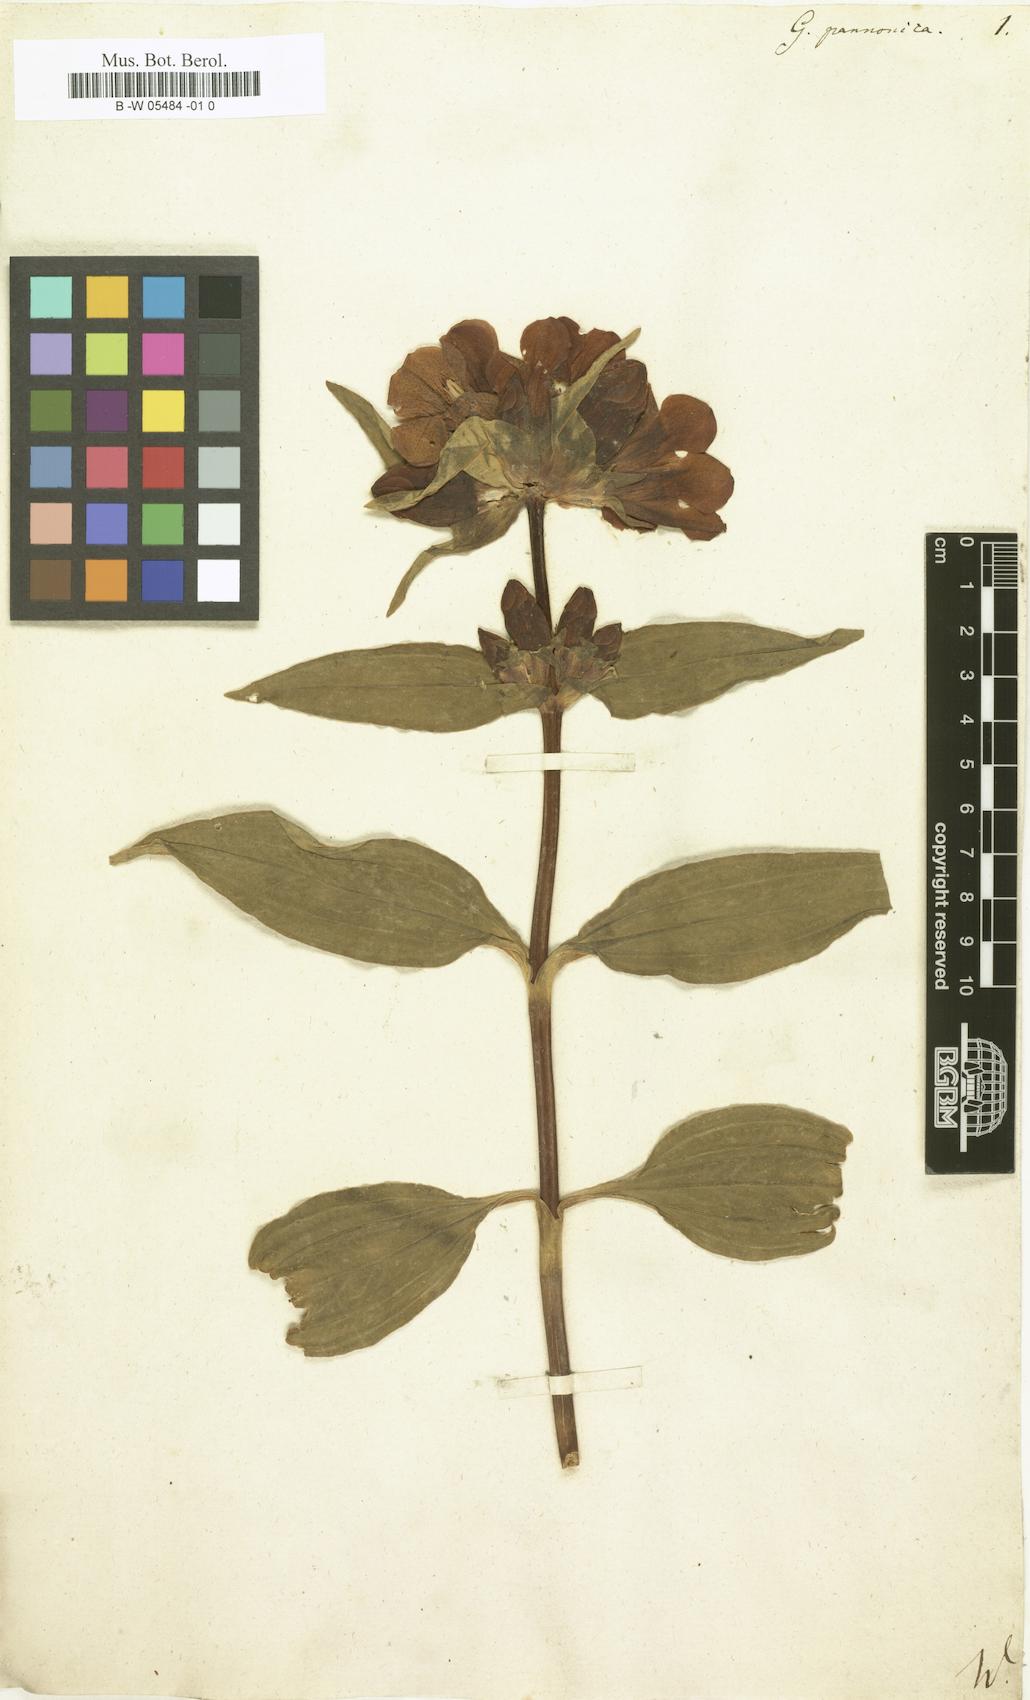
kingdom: Plantae
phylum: Tracheophyta
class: Magnoliopsida
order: Gentianales
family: Gentianaceae
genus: Gentiana
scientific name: Gentiana pannonica
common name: Hungarian gentian
